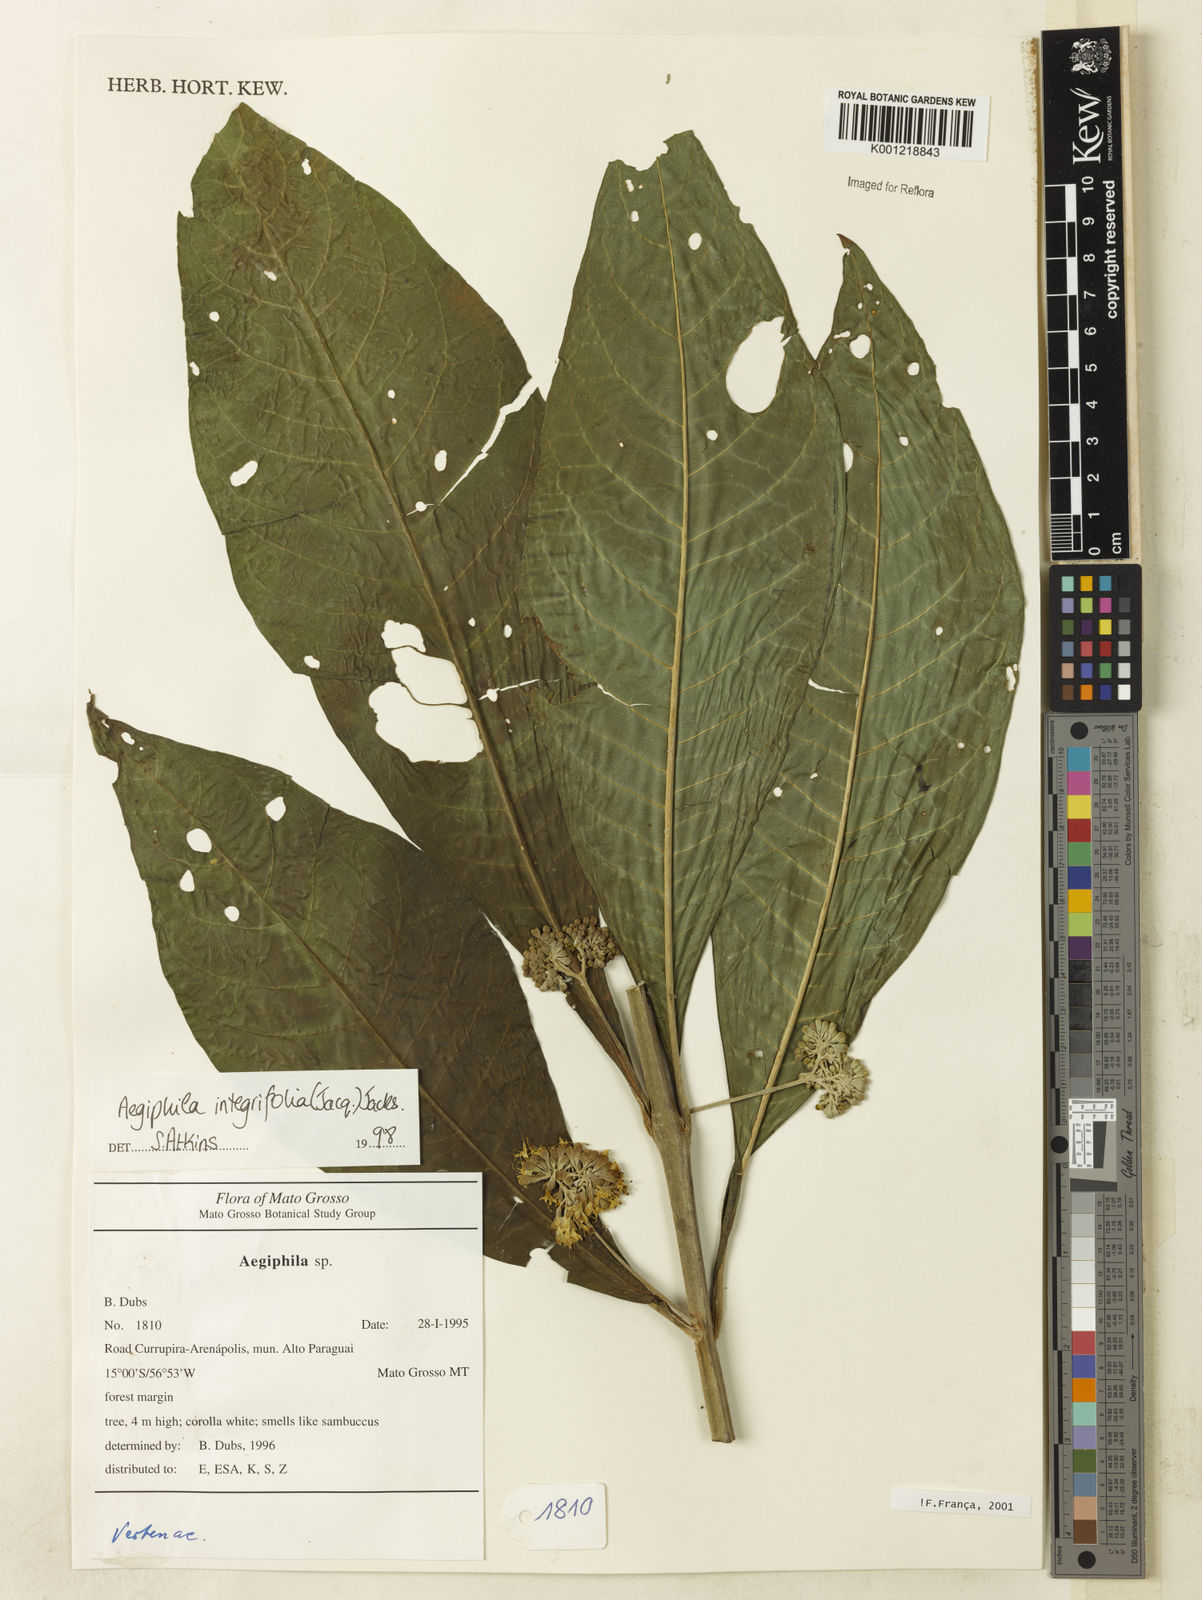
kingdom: Plantae
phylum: Tracheophyta
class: Magnoliopsida
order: Lamiales
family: Lamiaceae
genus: Aegiphila
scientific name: Aegiphila
